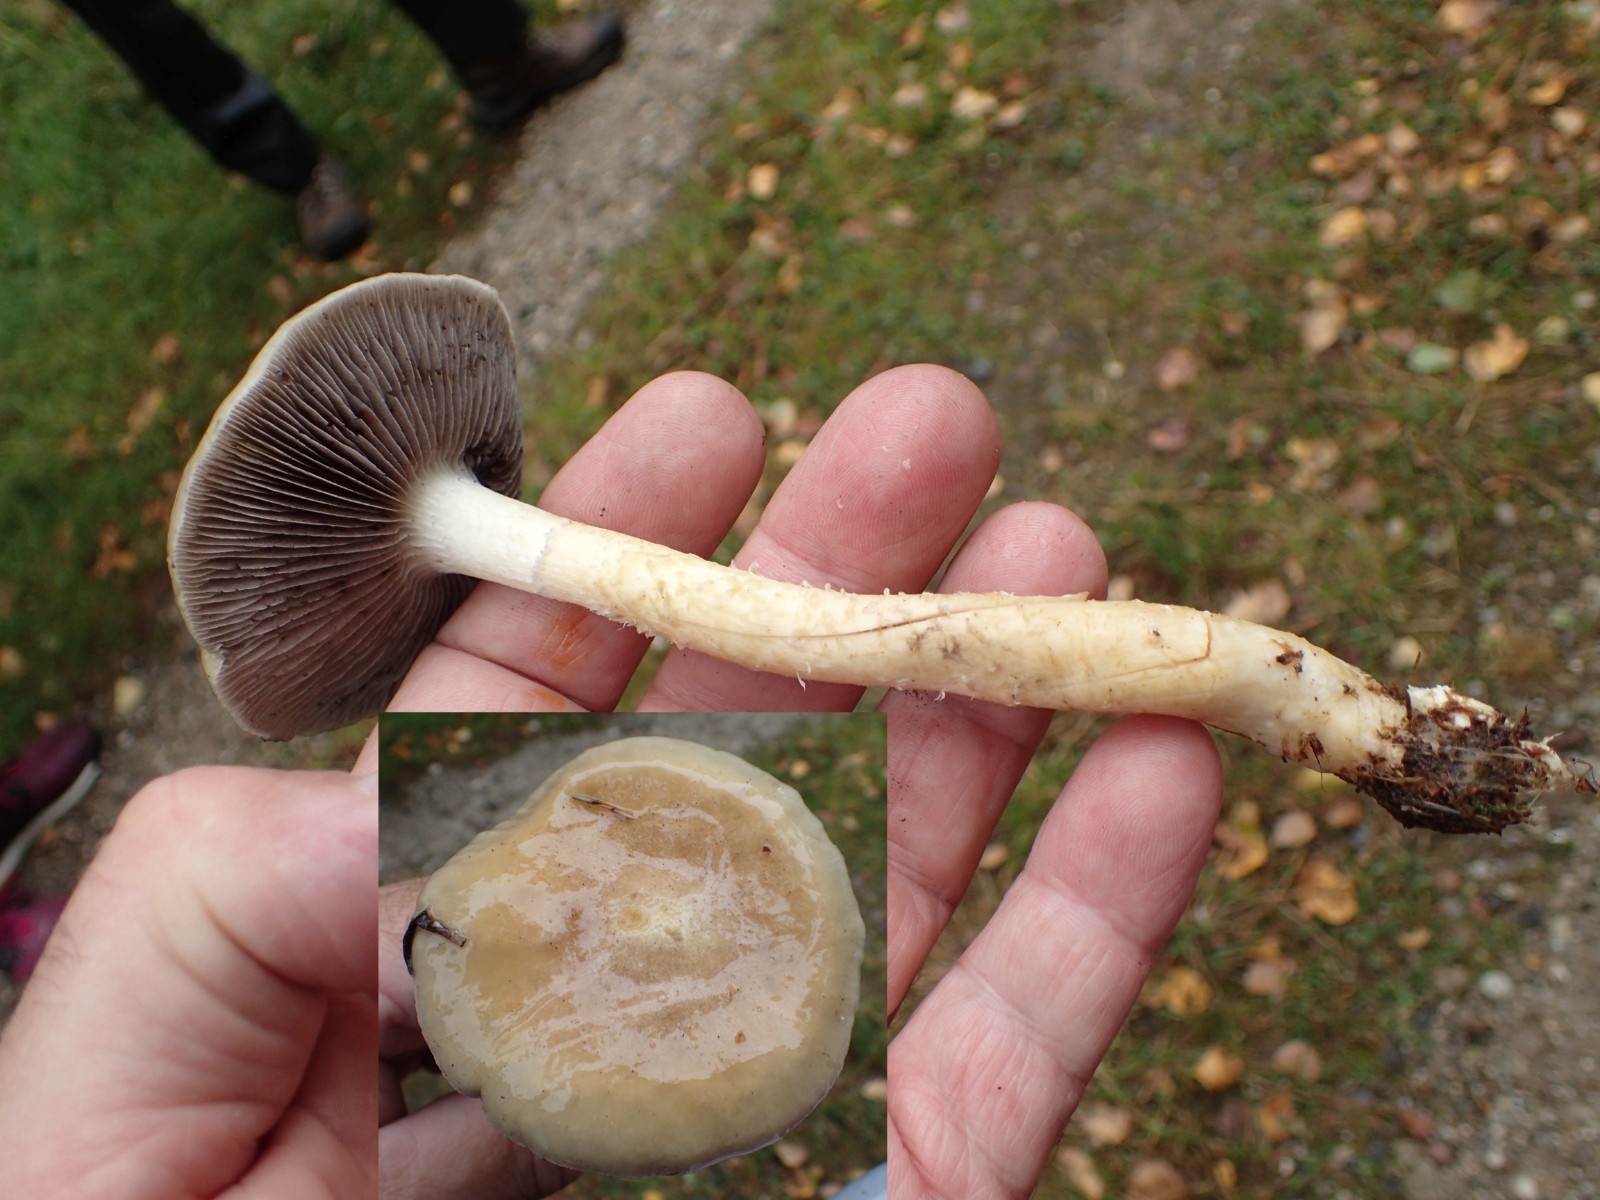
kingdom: Fungi
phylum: Basidiomycota
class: Agaricomycetes
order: Agaricales
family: Strophariaceae
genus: Stropharia
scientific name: Stropharia hornemannii
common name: nordisk bredblad
